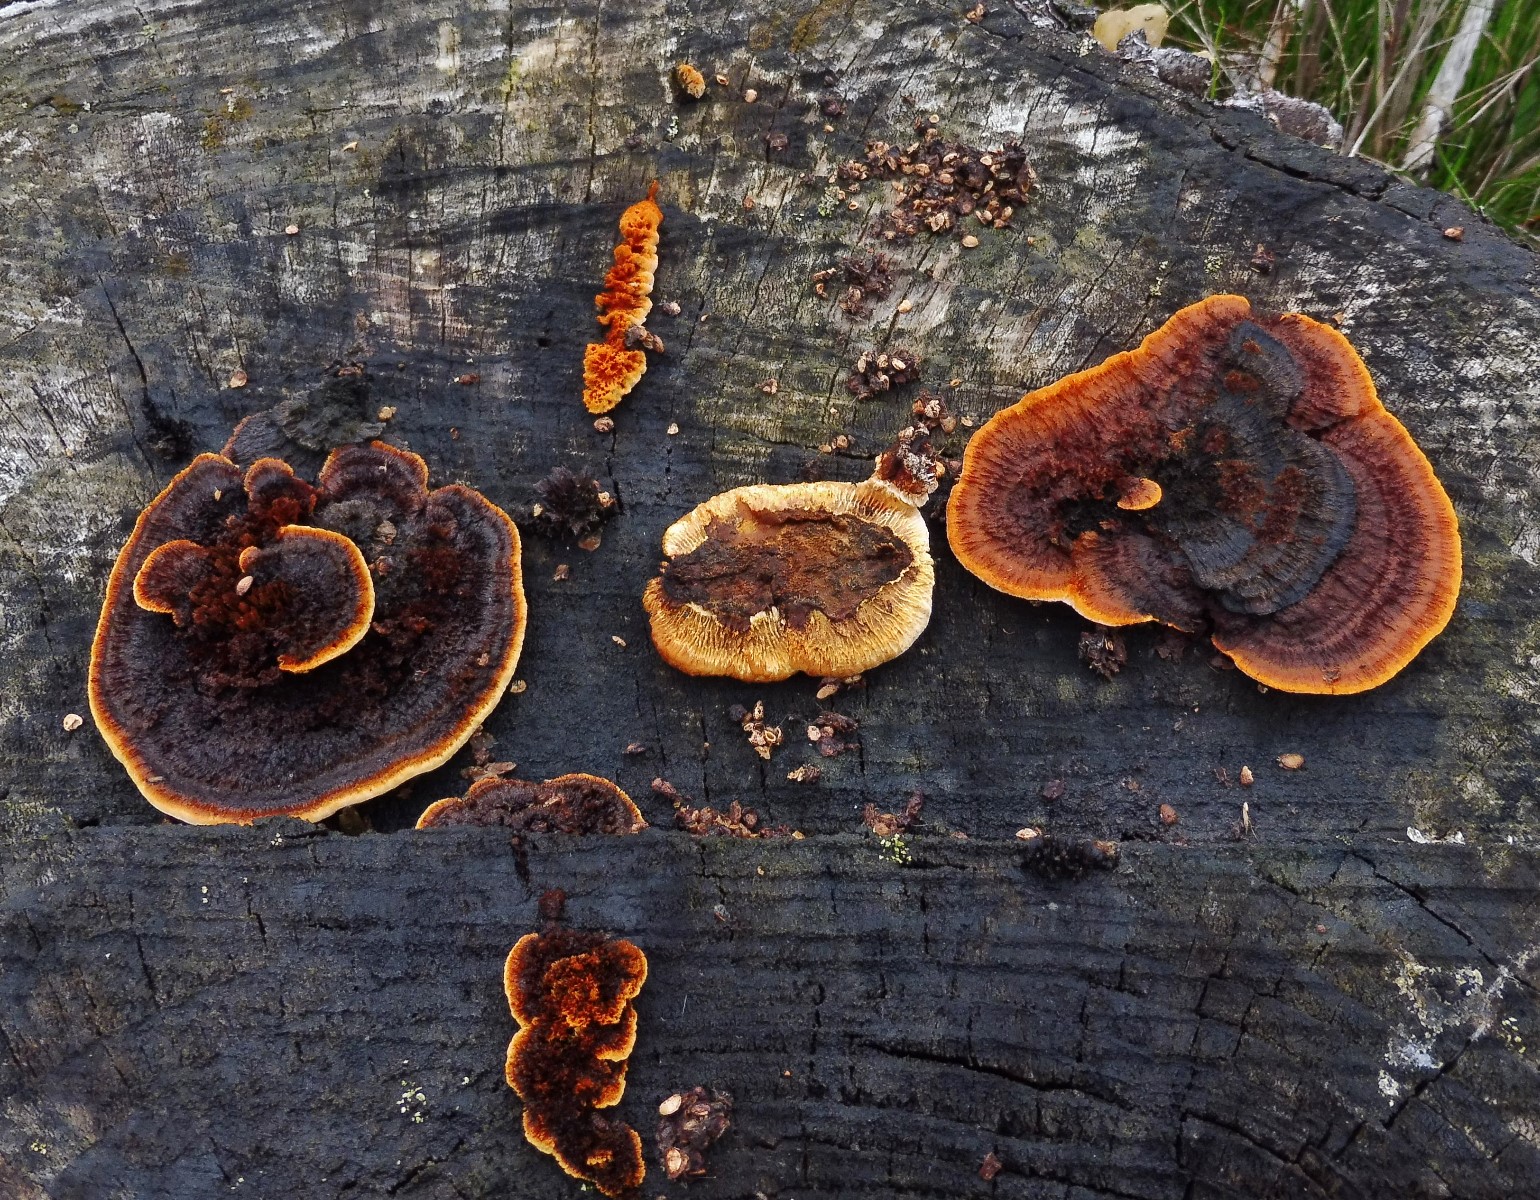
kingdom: Fungi
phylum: Basidiomycota
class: Agaricomycetes
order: Gloeophyllales
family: Gloeophyllaceae
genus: Gloeophyllum
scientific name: Gloeophyllum sepiarium
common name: fyrre-korkhat
